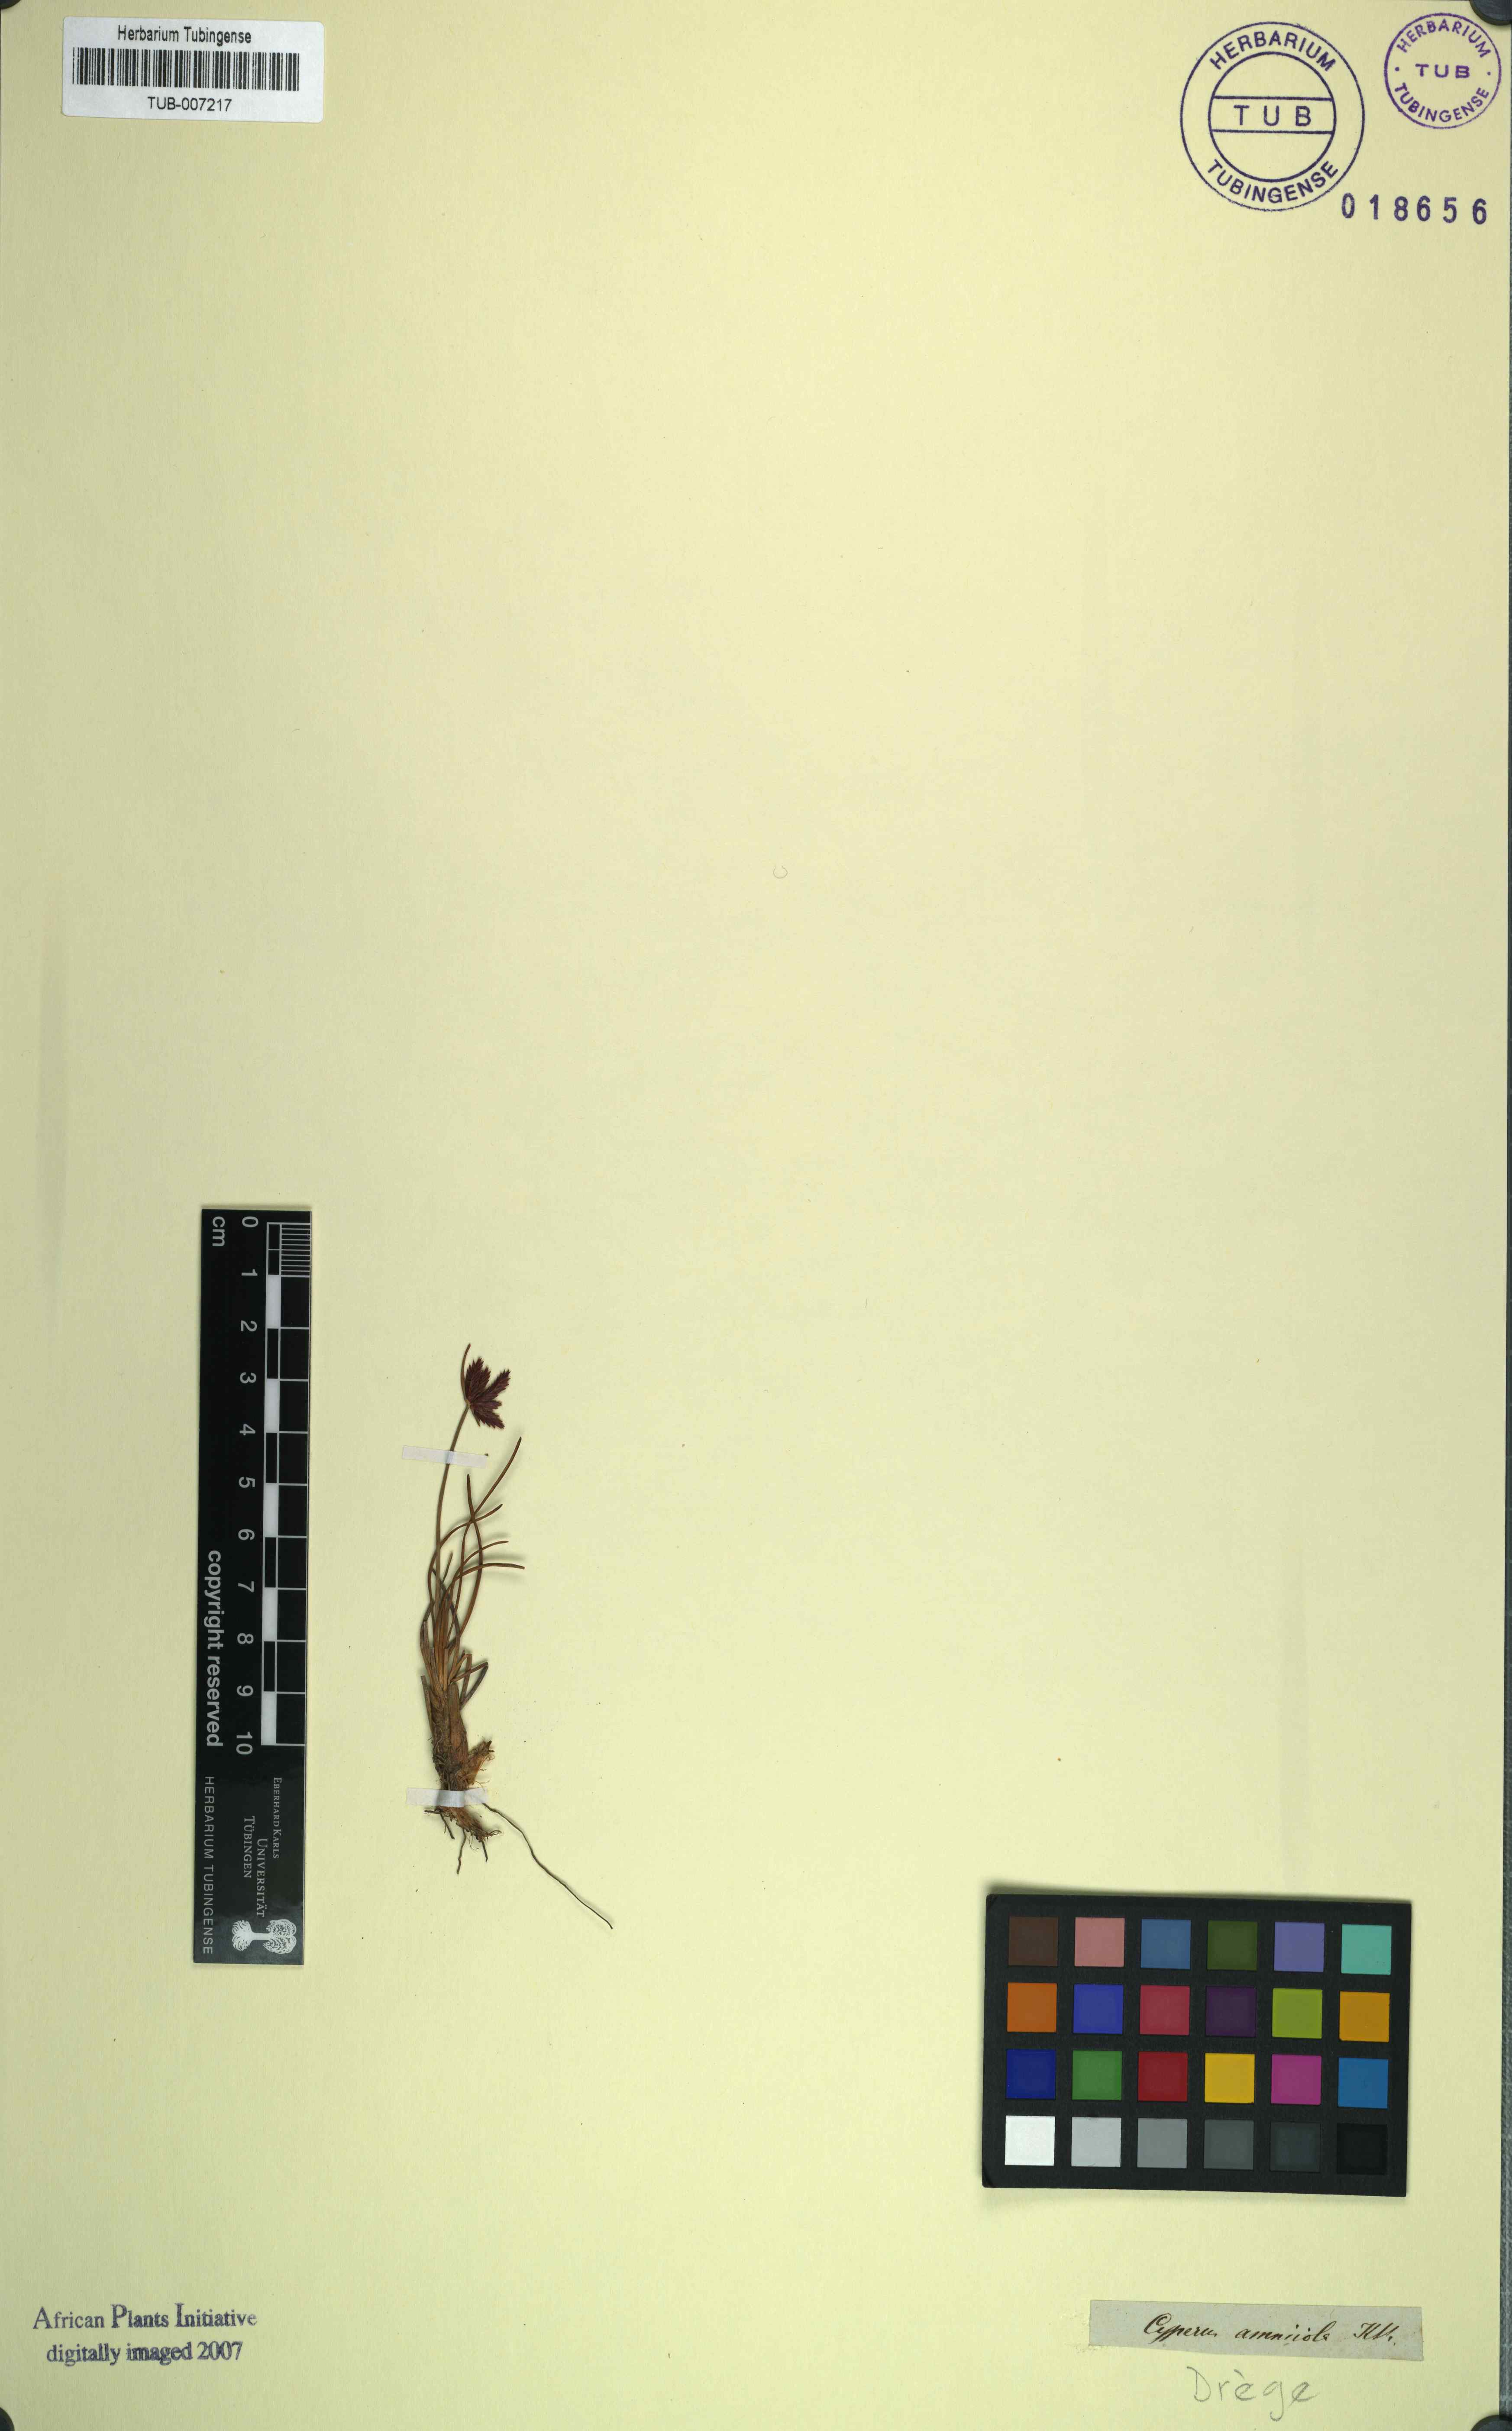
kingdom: Plantae
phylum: Tracheophyta
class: Liliopsida
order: Poales
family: Cyperaceae
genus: Cyperus
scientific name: Cyperus rupestris
